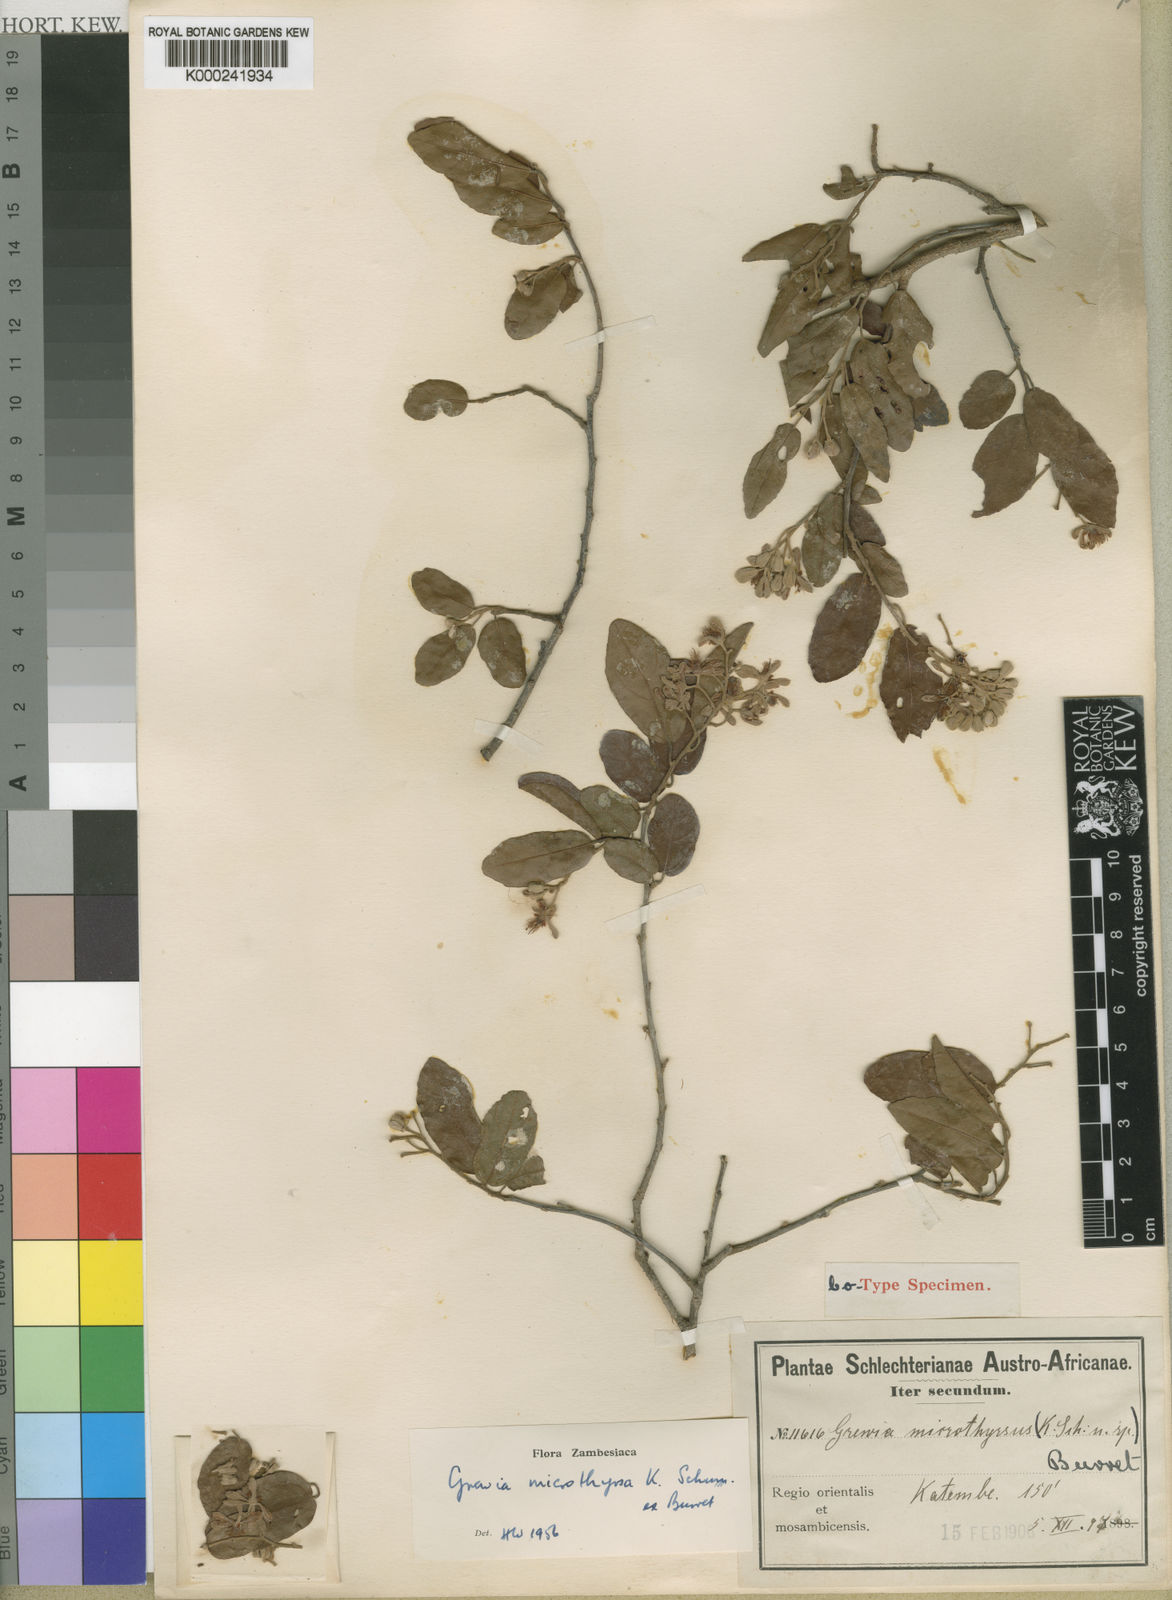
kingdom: Plantae
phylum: Tracheophyta
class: Magnoliopsida
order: Malvales
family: Malvaceae
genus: Microcos
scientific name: Microcos microthyrsa
